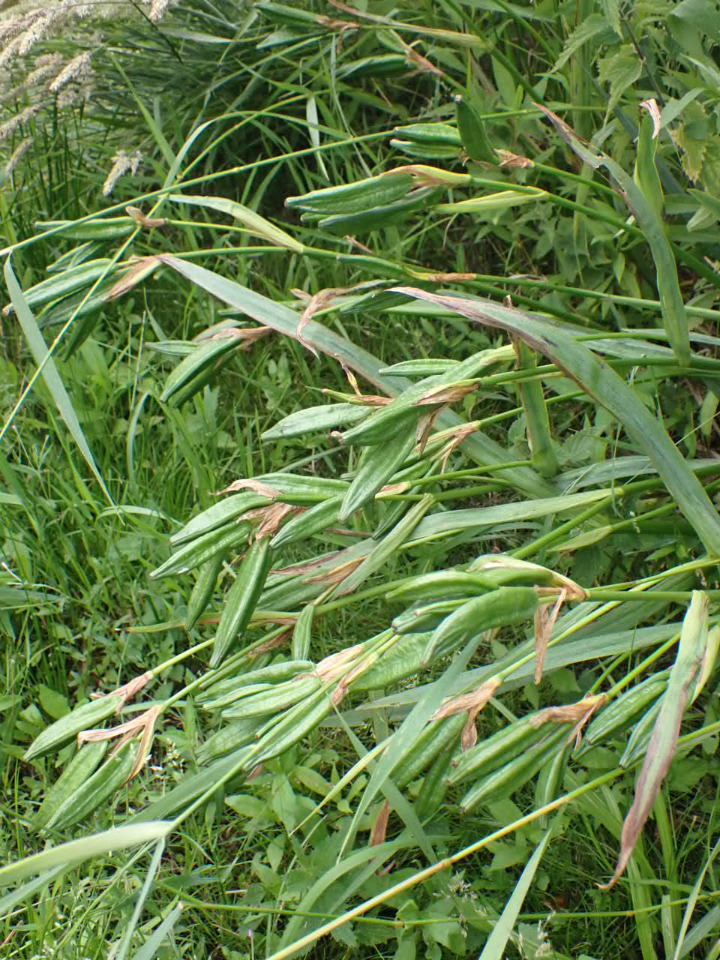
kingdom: Plantae
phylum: Tracheophyta
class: Liliopsida
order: Asparagales
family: Iridaceae
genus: Iris
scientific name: Iris pseudacorus
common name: Gul iris
